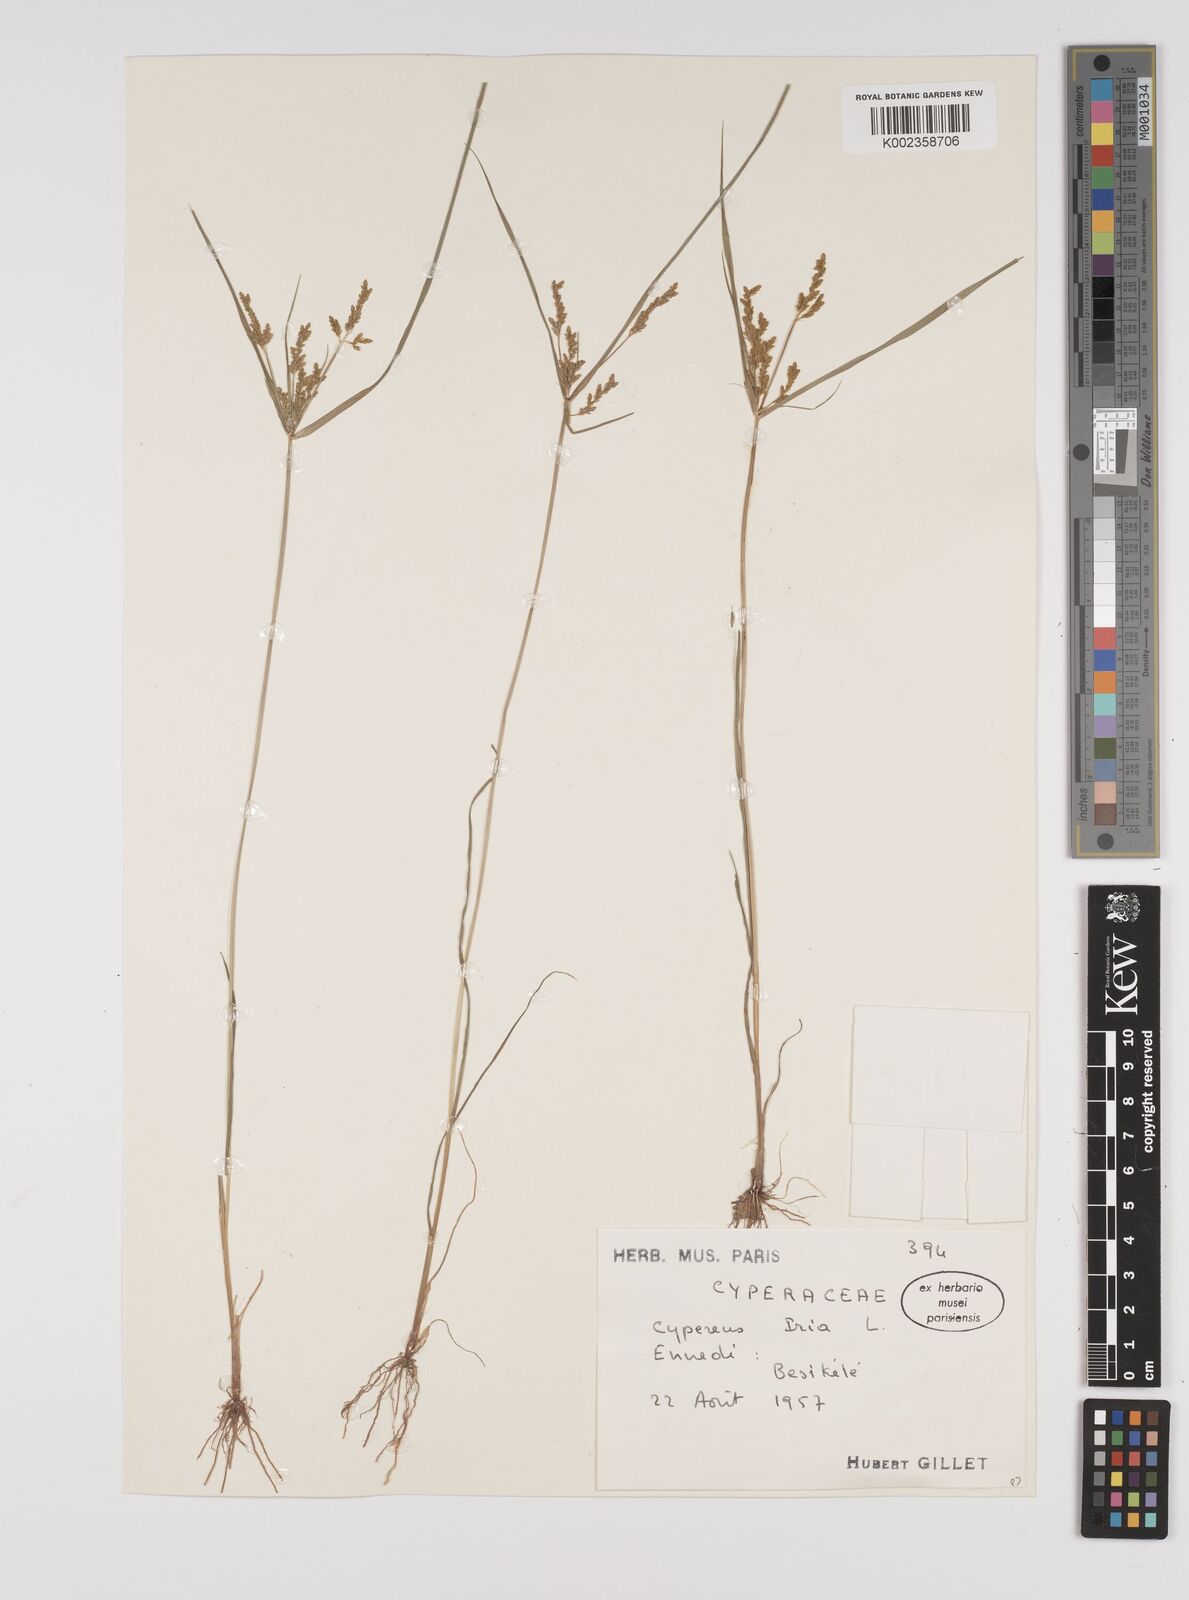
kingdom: Plantae
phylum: Tracheophyta
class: Liliopsida
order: Poales
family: Cyperaceae
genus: Cyperus
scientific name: Cyperus iria
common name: Ricefield flatsedge
